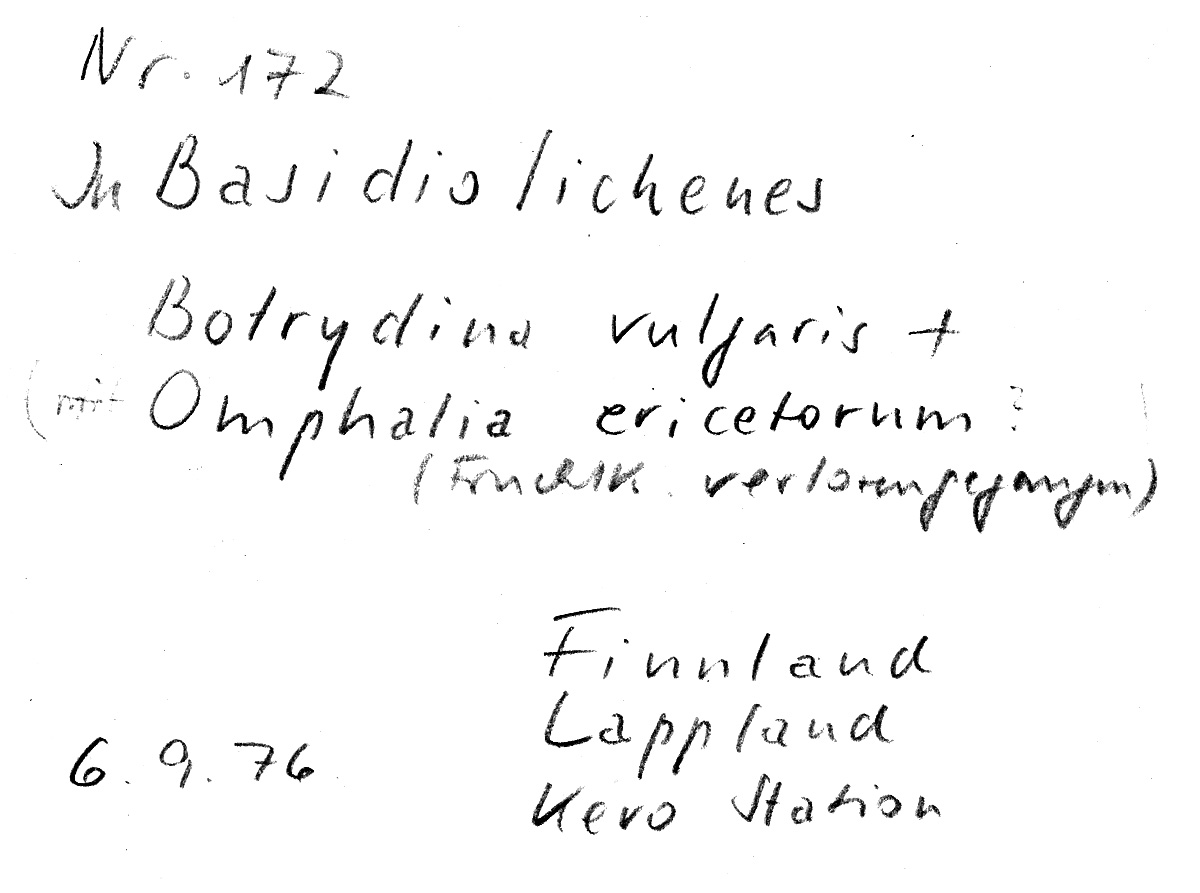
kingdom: Fungi
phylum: Basidiomycota
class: Agaricomycetes
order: Agaricales
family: Hygrophoraceae
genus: Lichenomphalia
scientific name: Lichenomphalia umbellifera
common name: Heath navel
